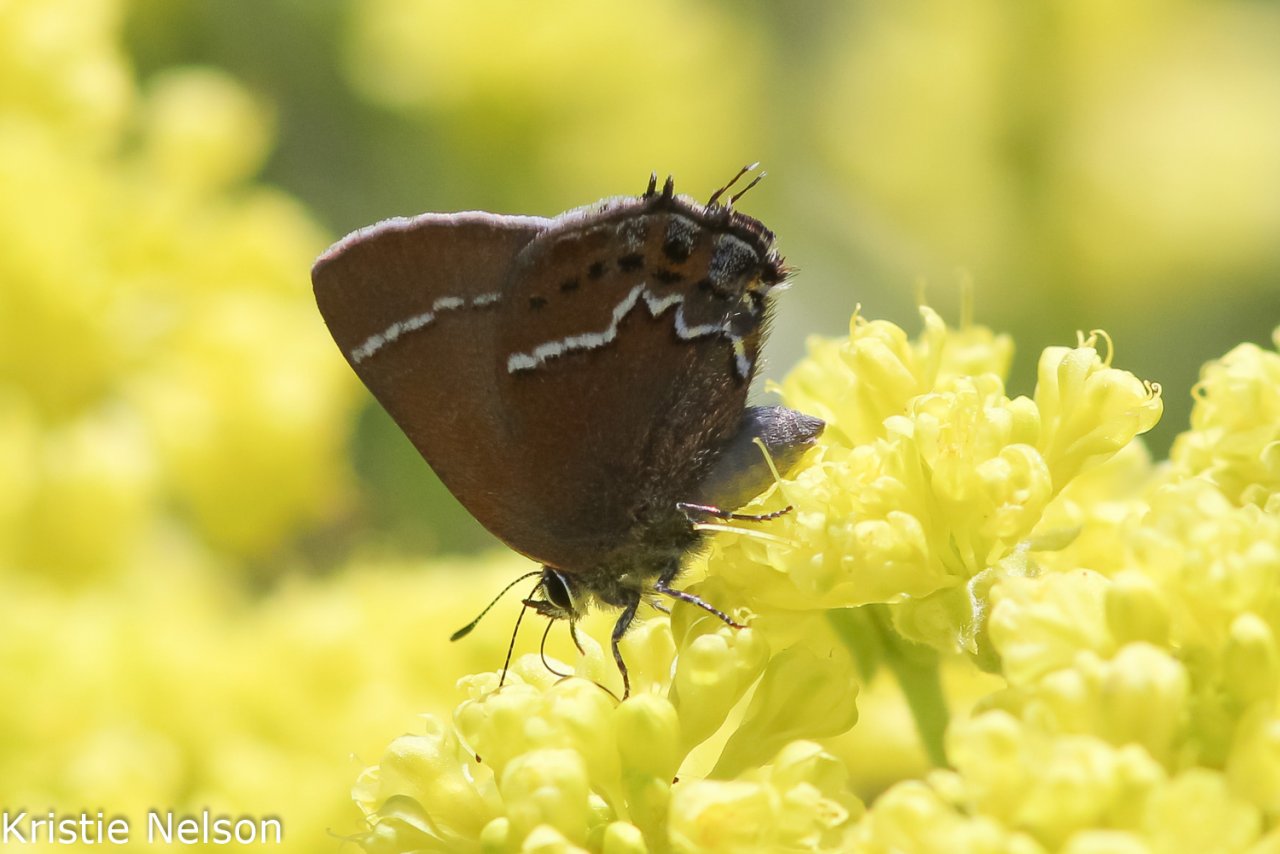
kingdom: Animalia
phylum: Arthropoda
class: Insecta
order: Lepidoptera
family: Lycaenidae
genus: Mitoura
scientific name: Mitoura spinetorum
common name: Thicket Hairstreak
